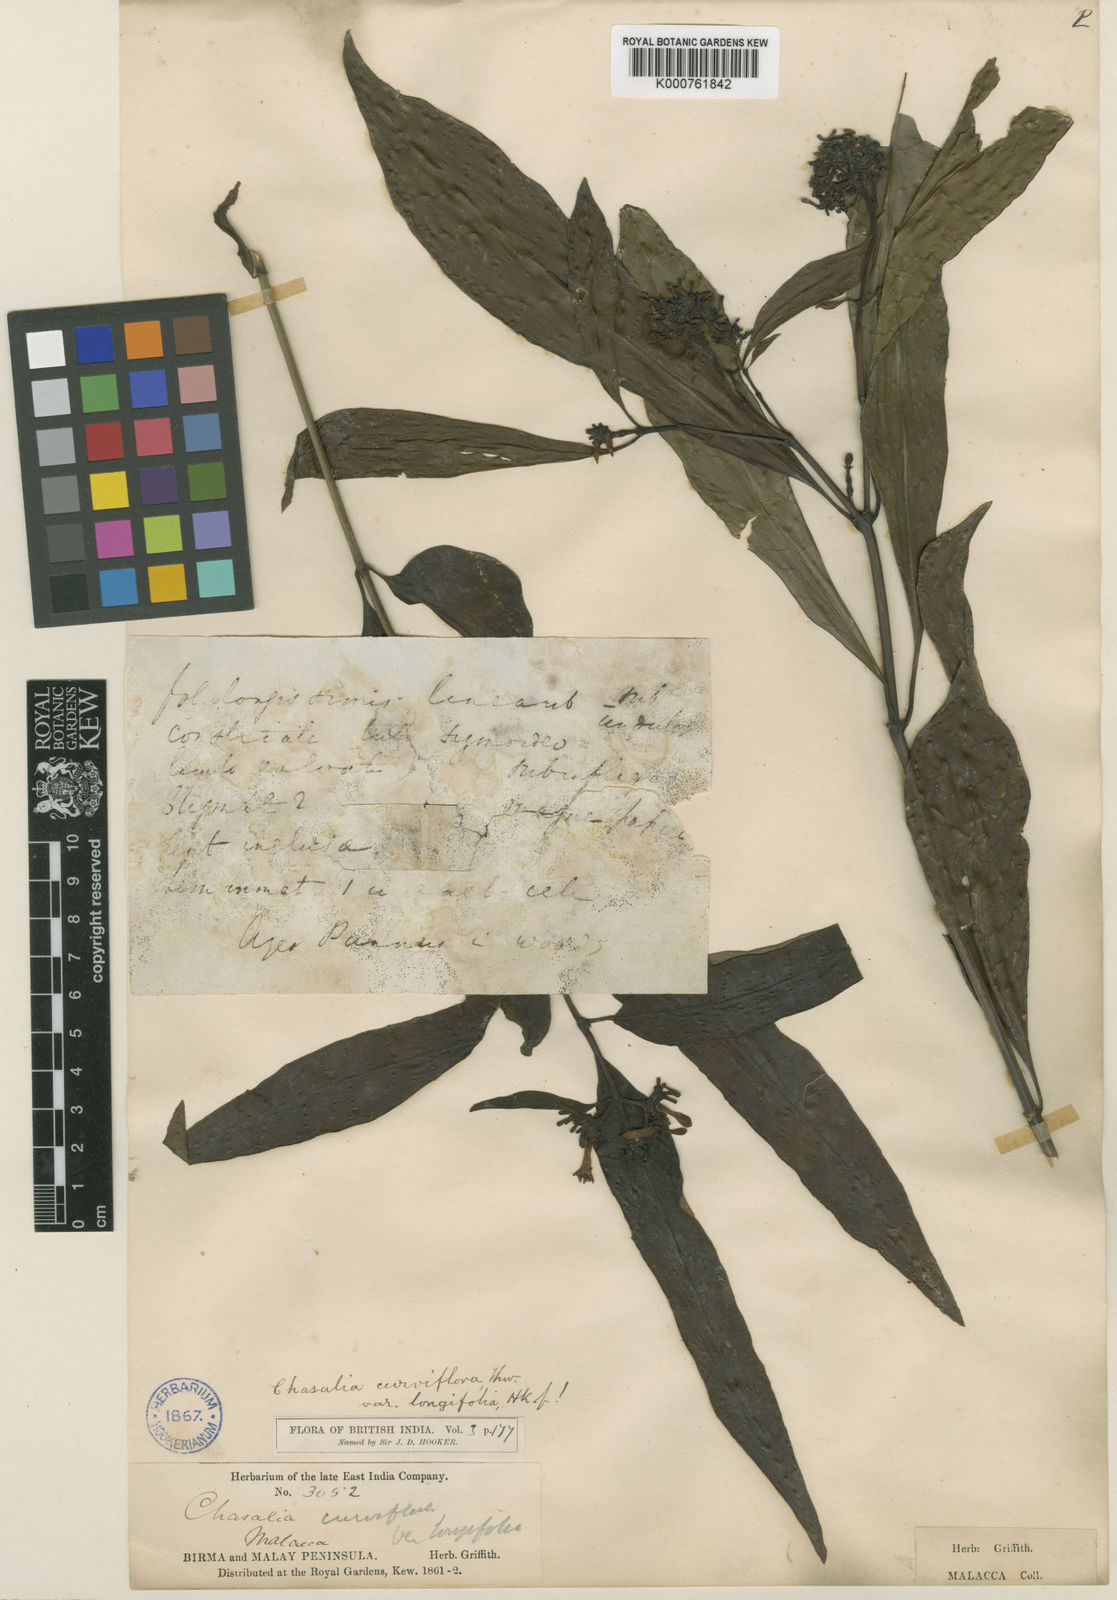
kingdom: Plantae
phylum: Tracheophyta
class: Magnoliopsida
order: Gentianales
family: Rubiaceae
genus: Chassalia
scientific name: Chassalia curviflora
